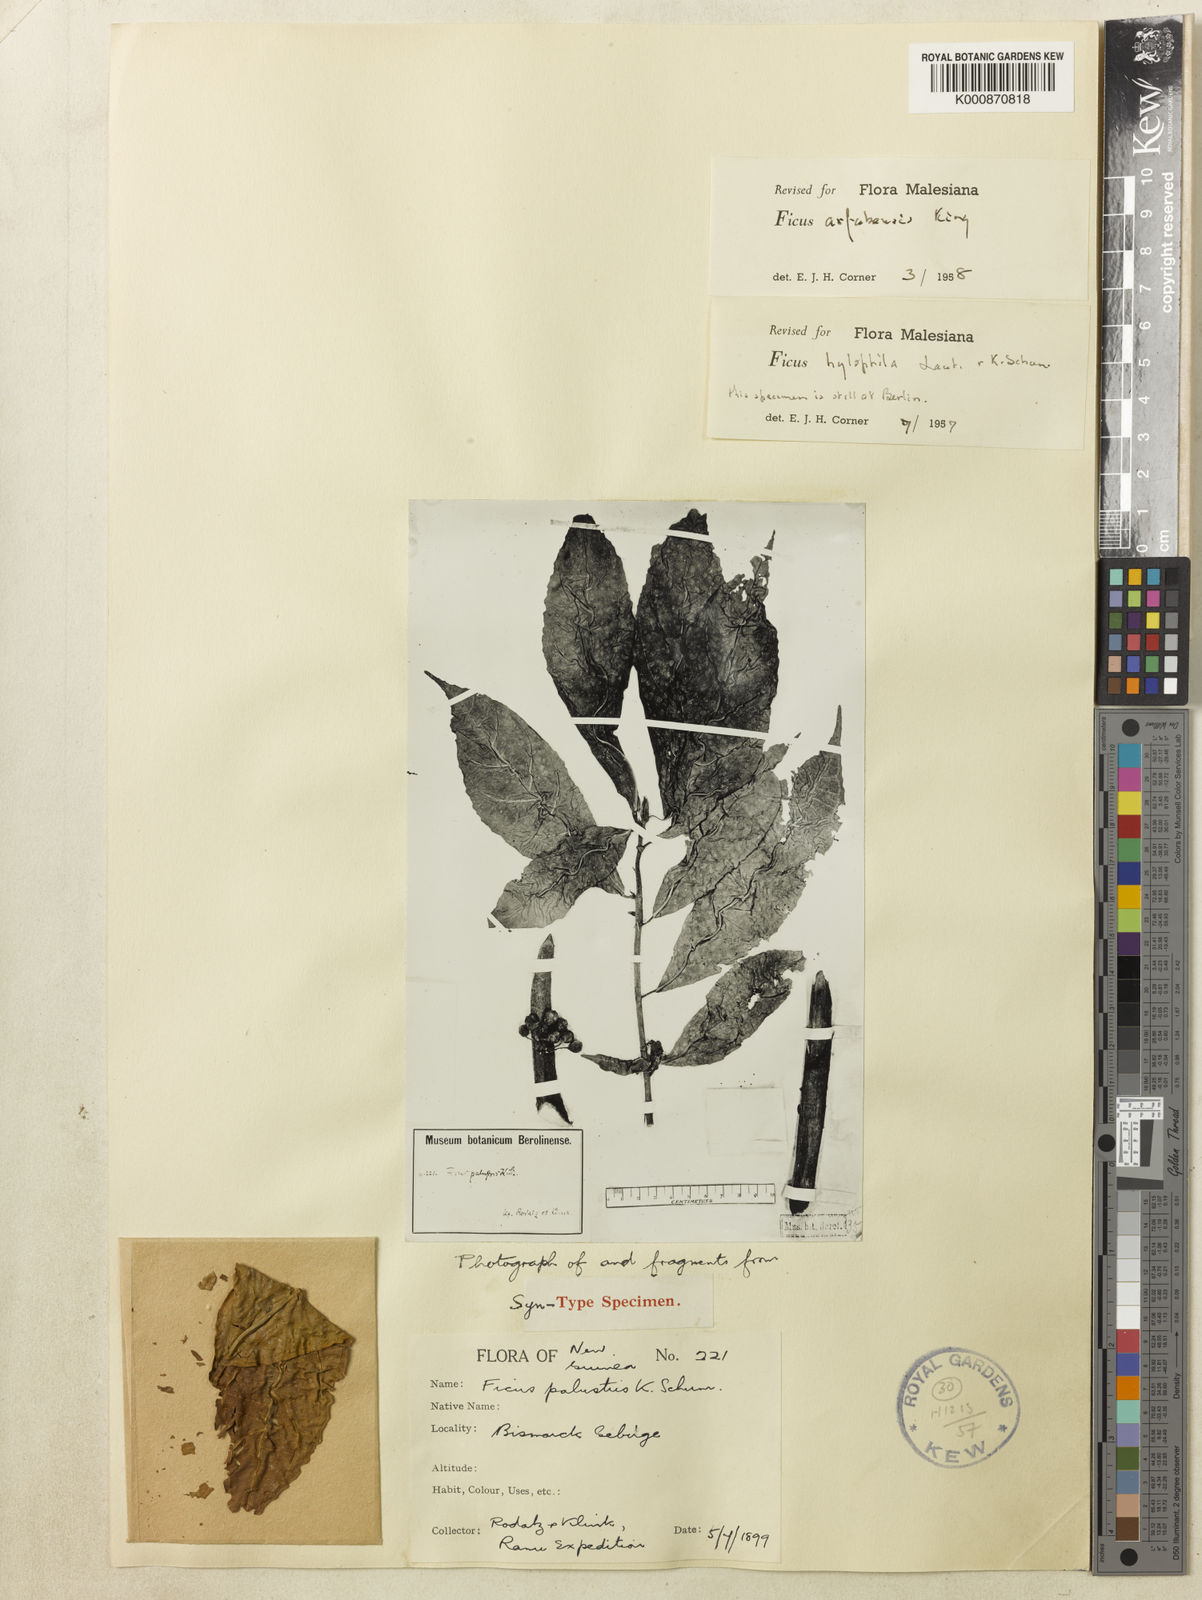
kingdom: Plantae
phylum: Tracheophyta
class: Magnoliopsida
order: Rosales
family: Moraceae
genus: Ficus
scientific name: Ficus ribes
